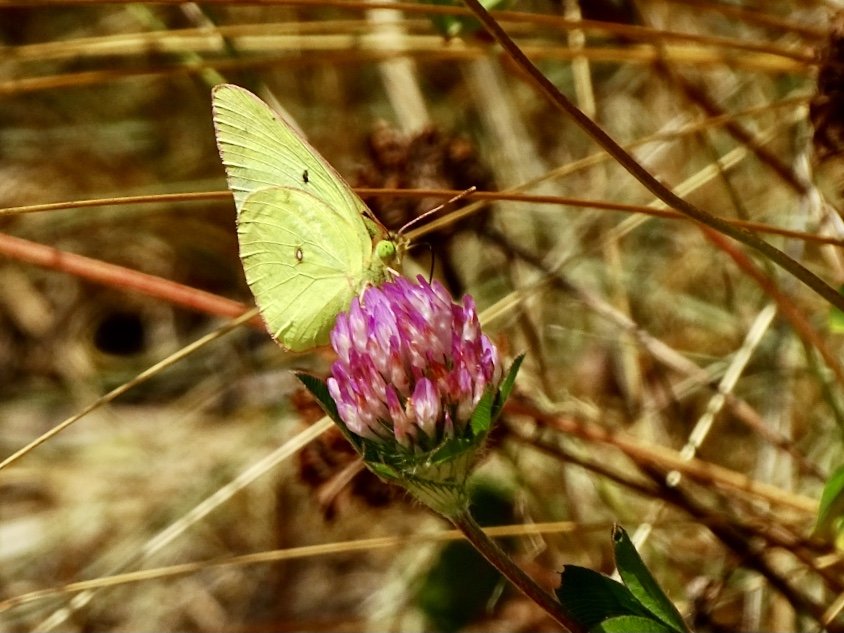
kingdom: Animalia
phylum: Arthropoda
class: Insecta
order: Lepidoptera
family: Pieridae
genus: Colias
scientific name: Colias philodice
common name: Clouded Sulphur
